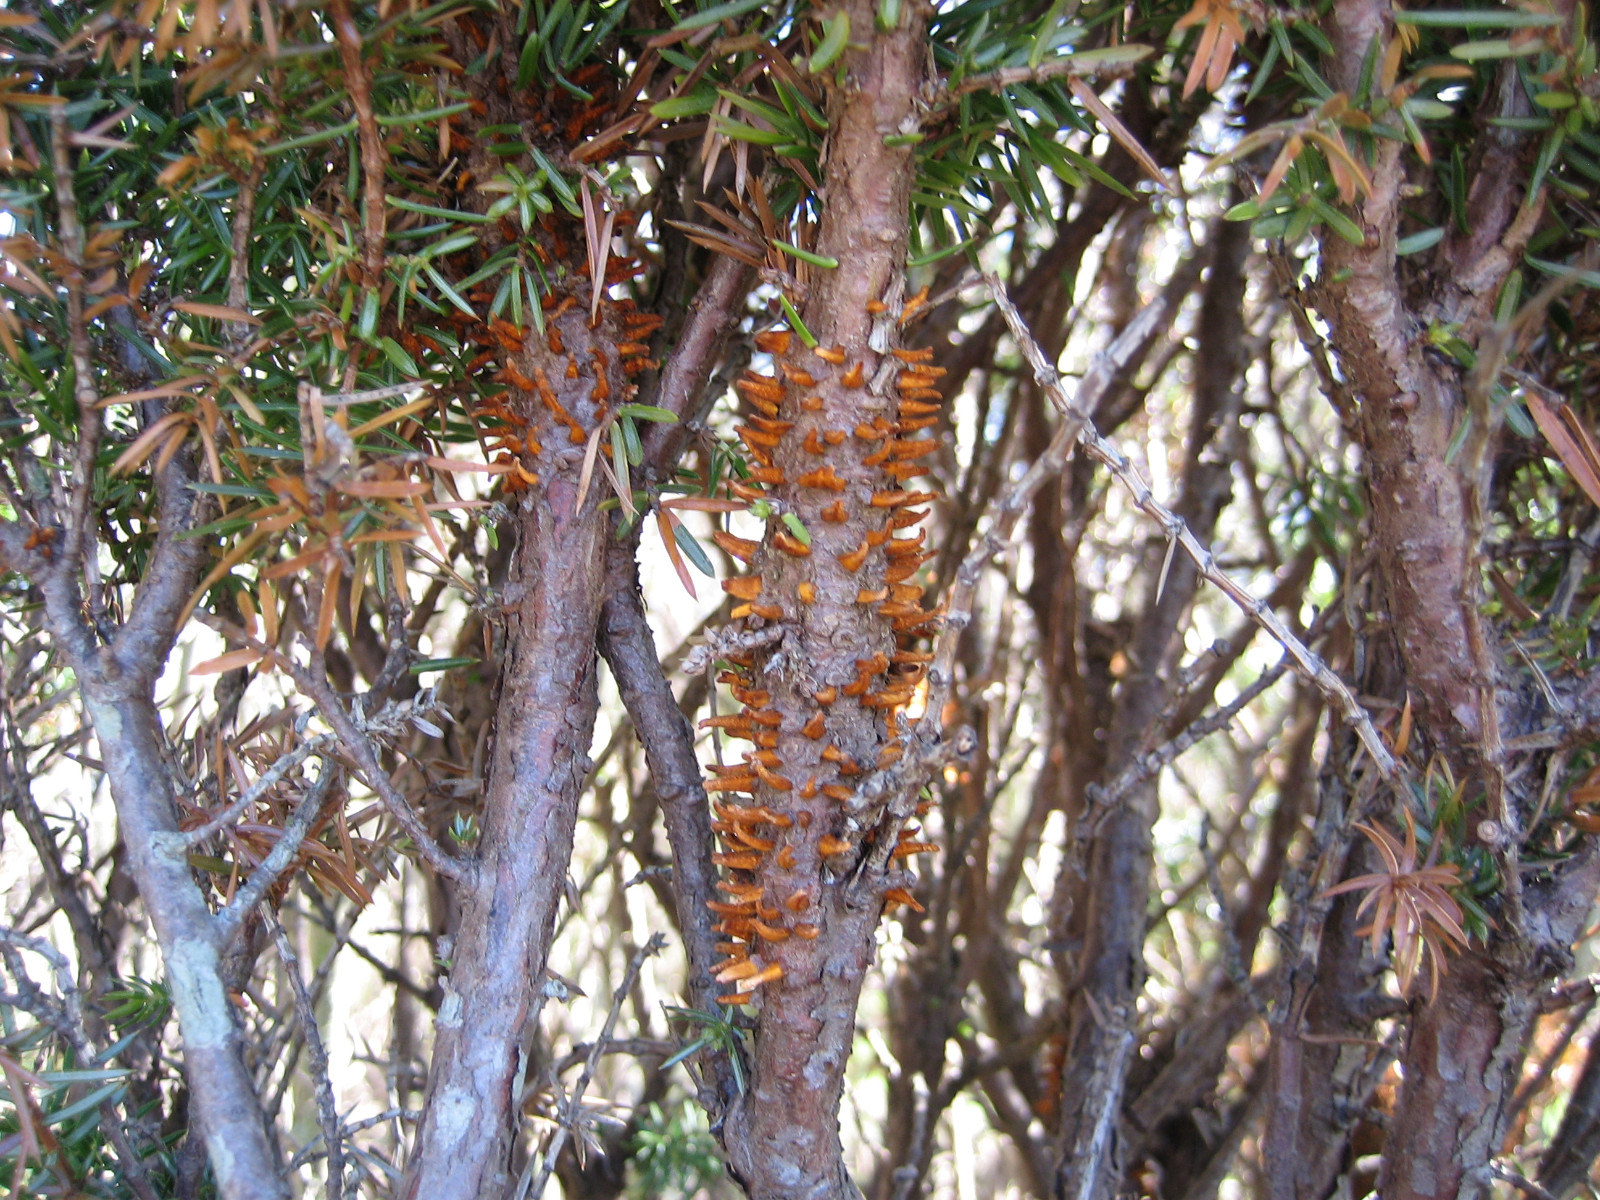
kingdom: Fungi
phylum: Basidiomycota
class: Pucciniomycetes
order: Pucciniales
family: Gymnosporangiaceae
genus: Gymnosporangium
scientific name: Gymnosporangium clavariiforme
